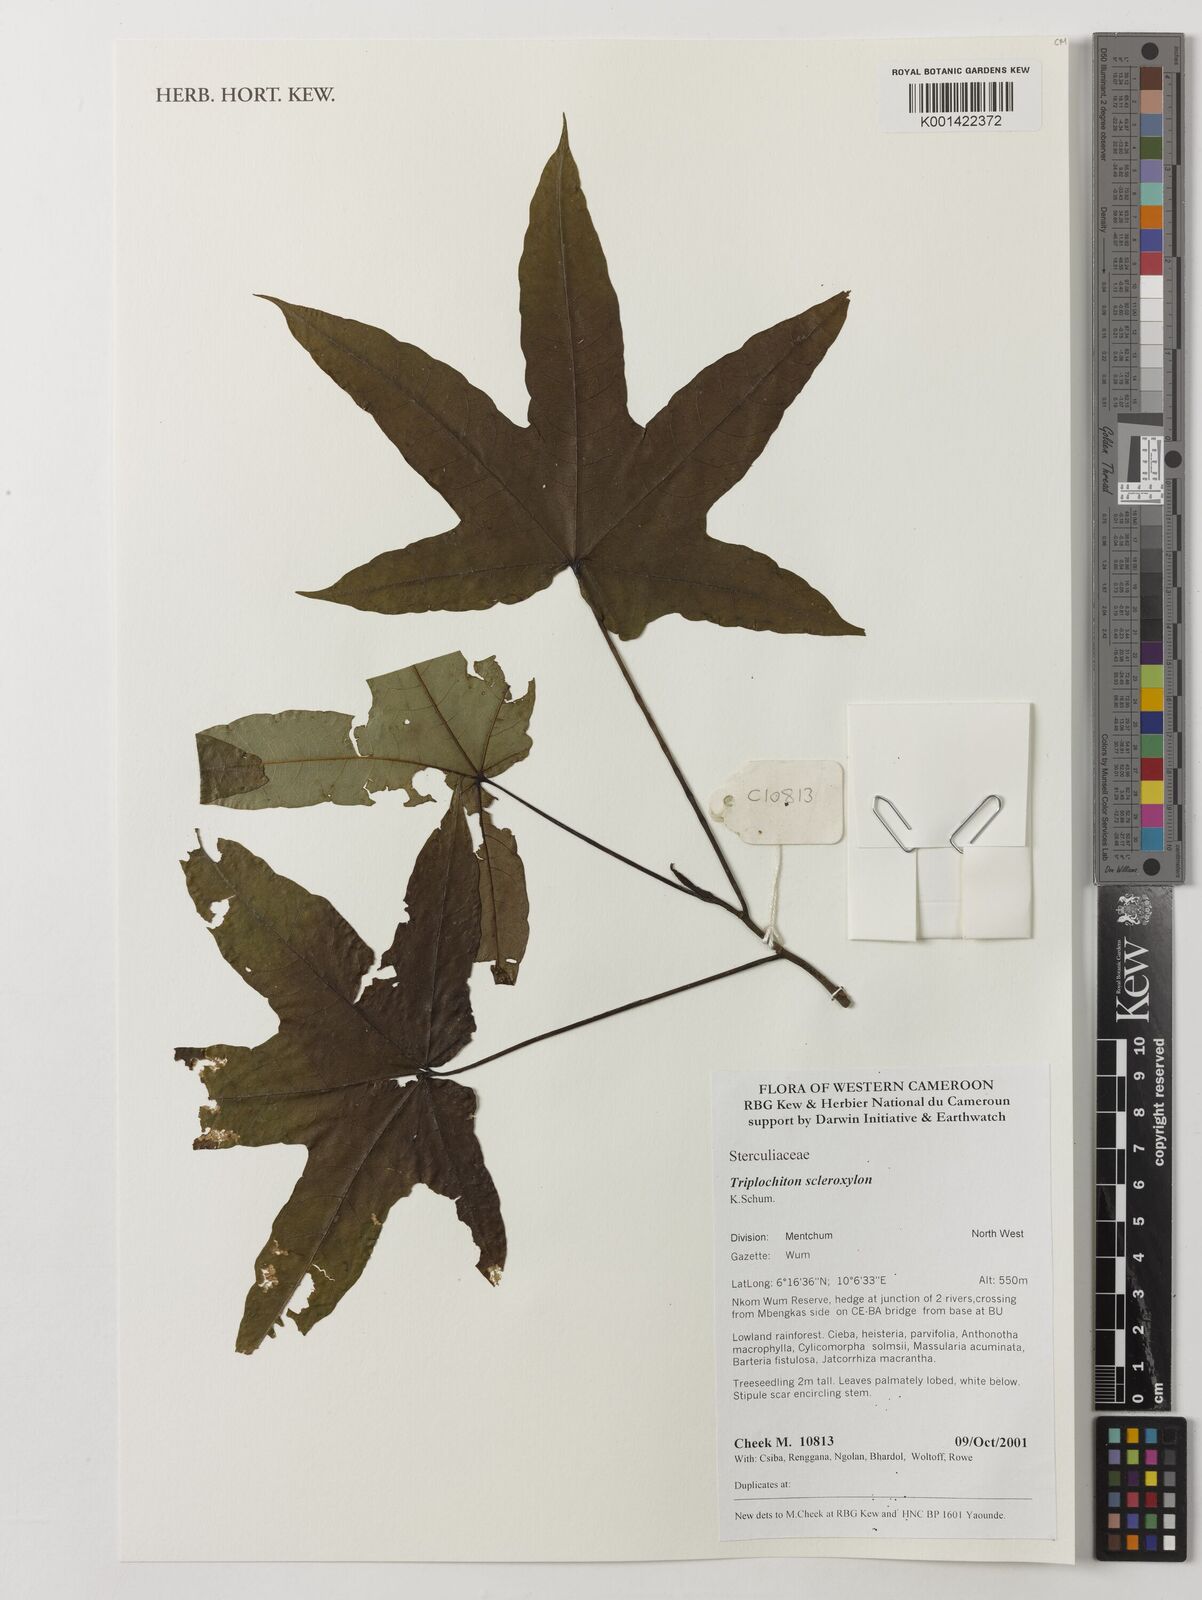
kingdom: Plantae
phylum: Tracheophyta
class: Magnoliopsida
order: Malvales
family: Malvaceae
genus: Triplochiton
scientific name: Triplochiton scleroxylon
